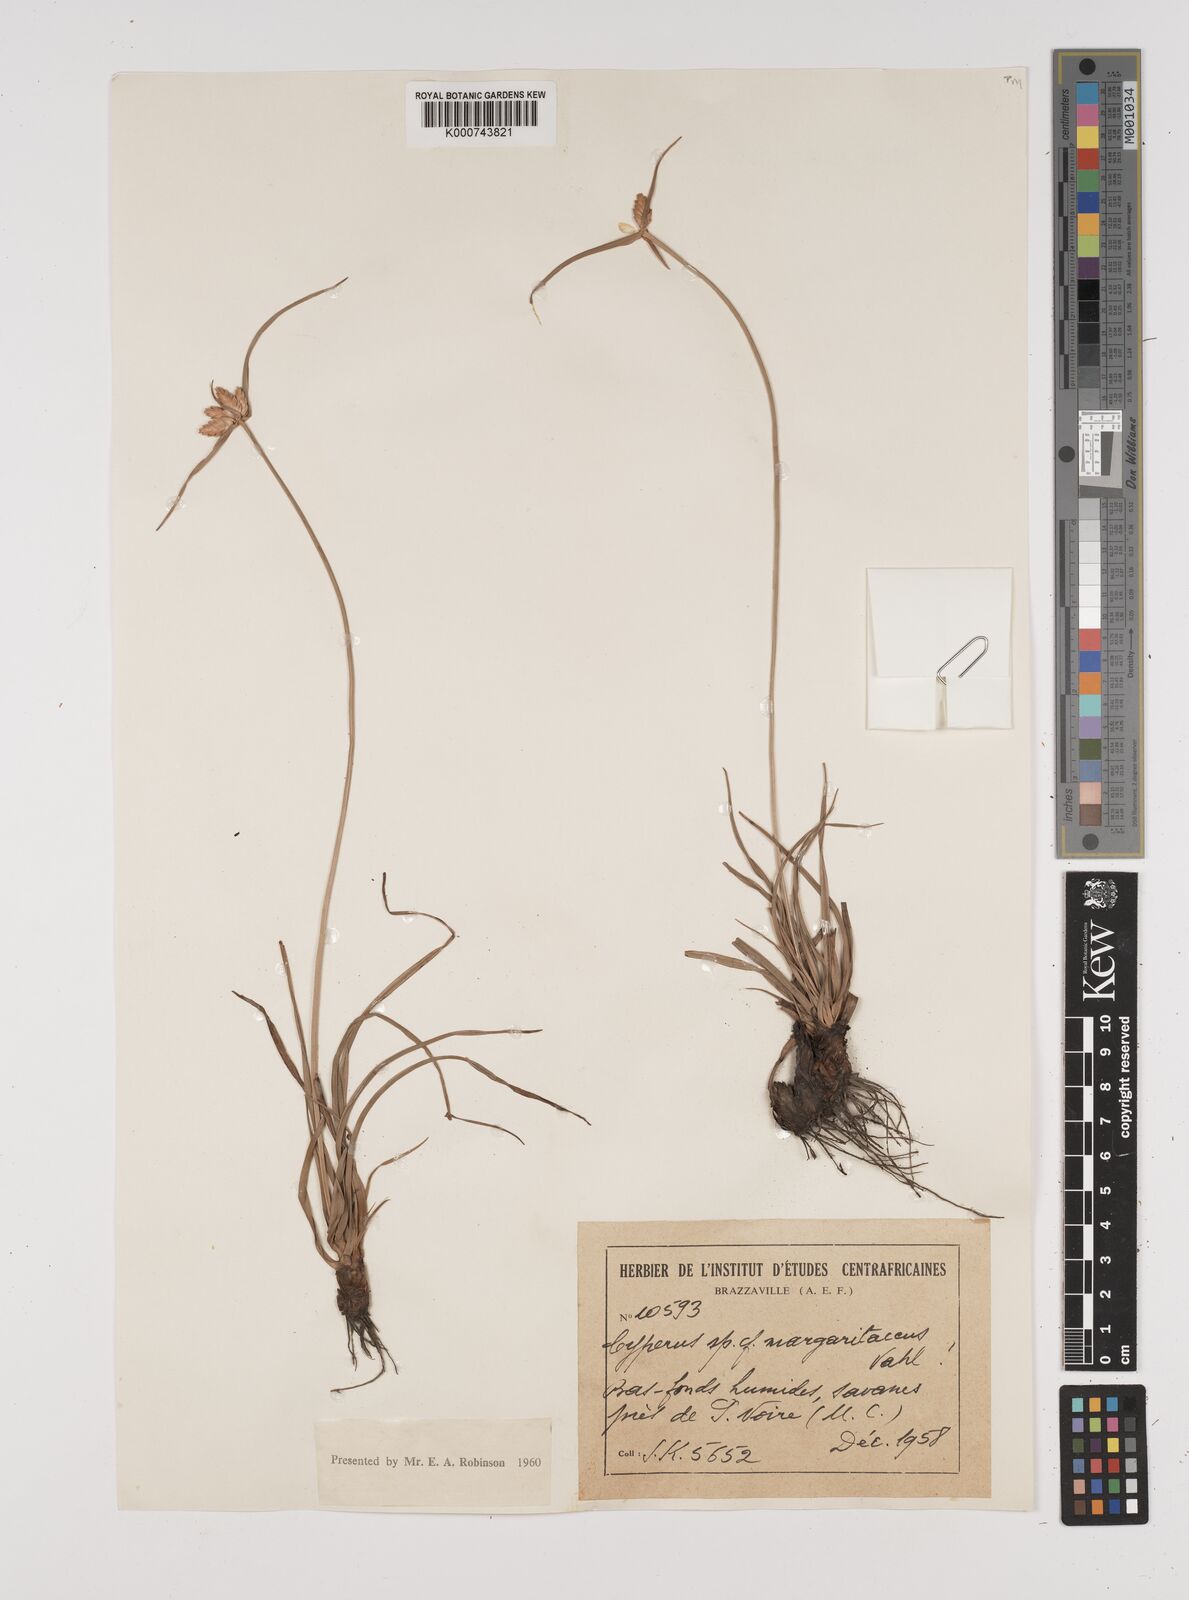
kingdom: Plantae
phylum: Tracheophyta
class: Liliopsida
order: Poales
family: Cyperaceae
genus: Cyperus
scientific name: Cyperus margaritaceus
